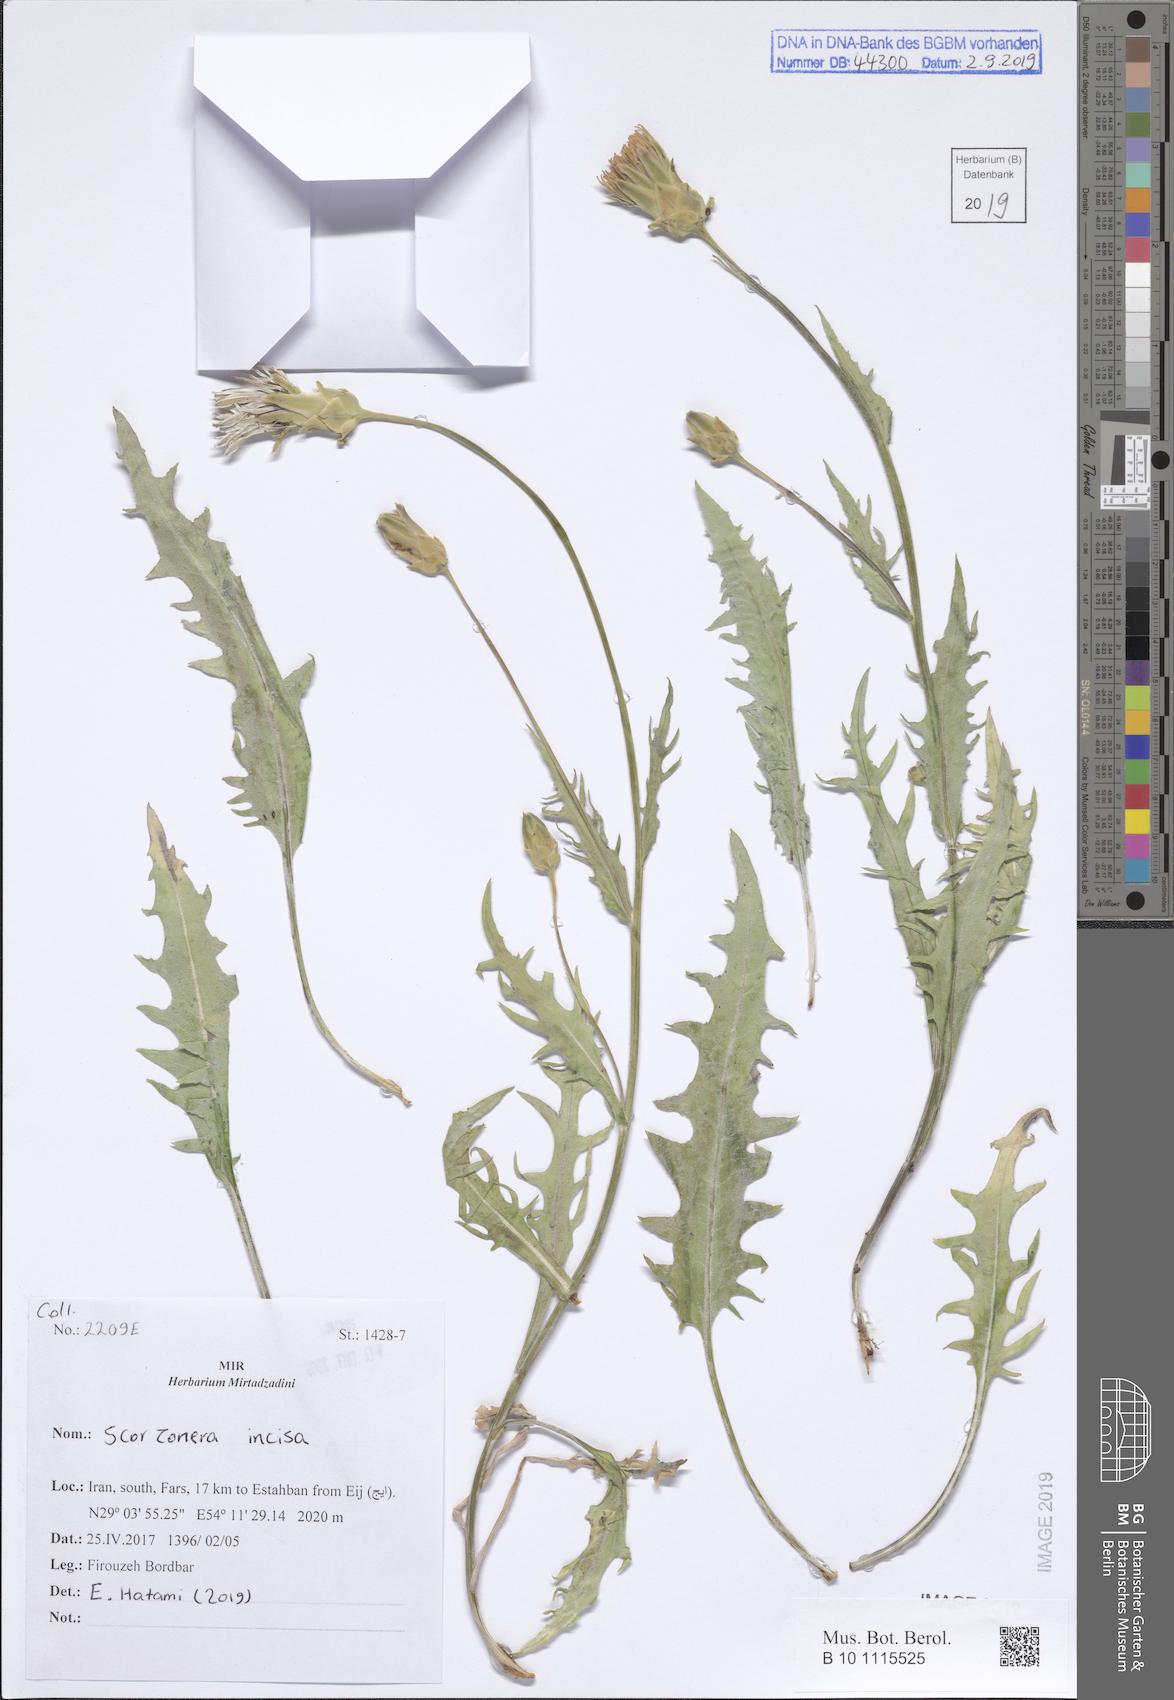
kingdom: Plantae
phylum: Tracheophyta
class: Magnoliopsida
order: Asterales
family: Asteraceae
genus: Aslia
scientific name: Aslia calyculata
